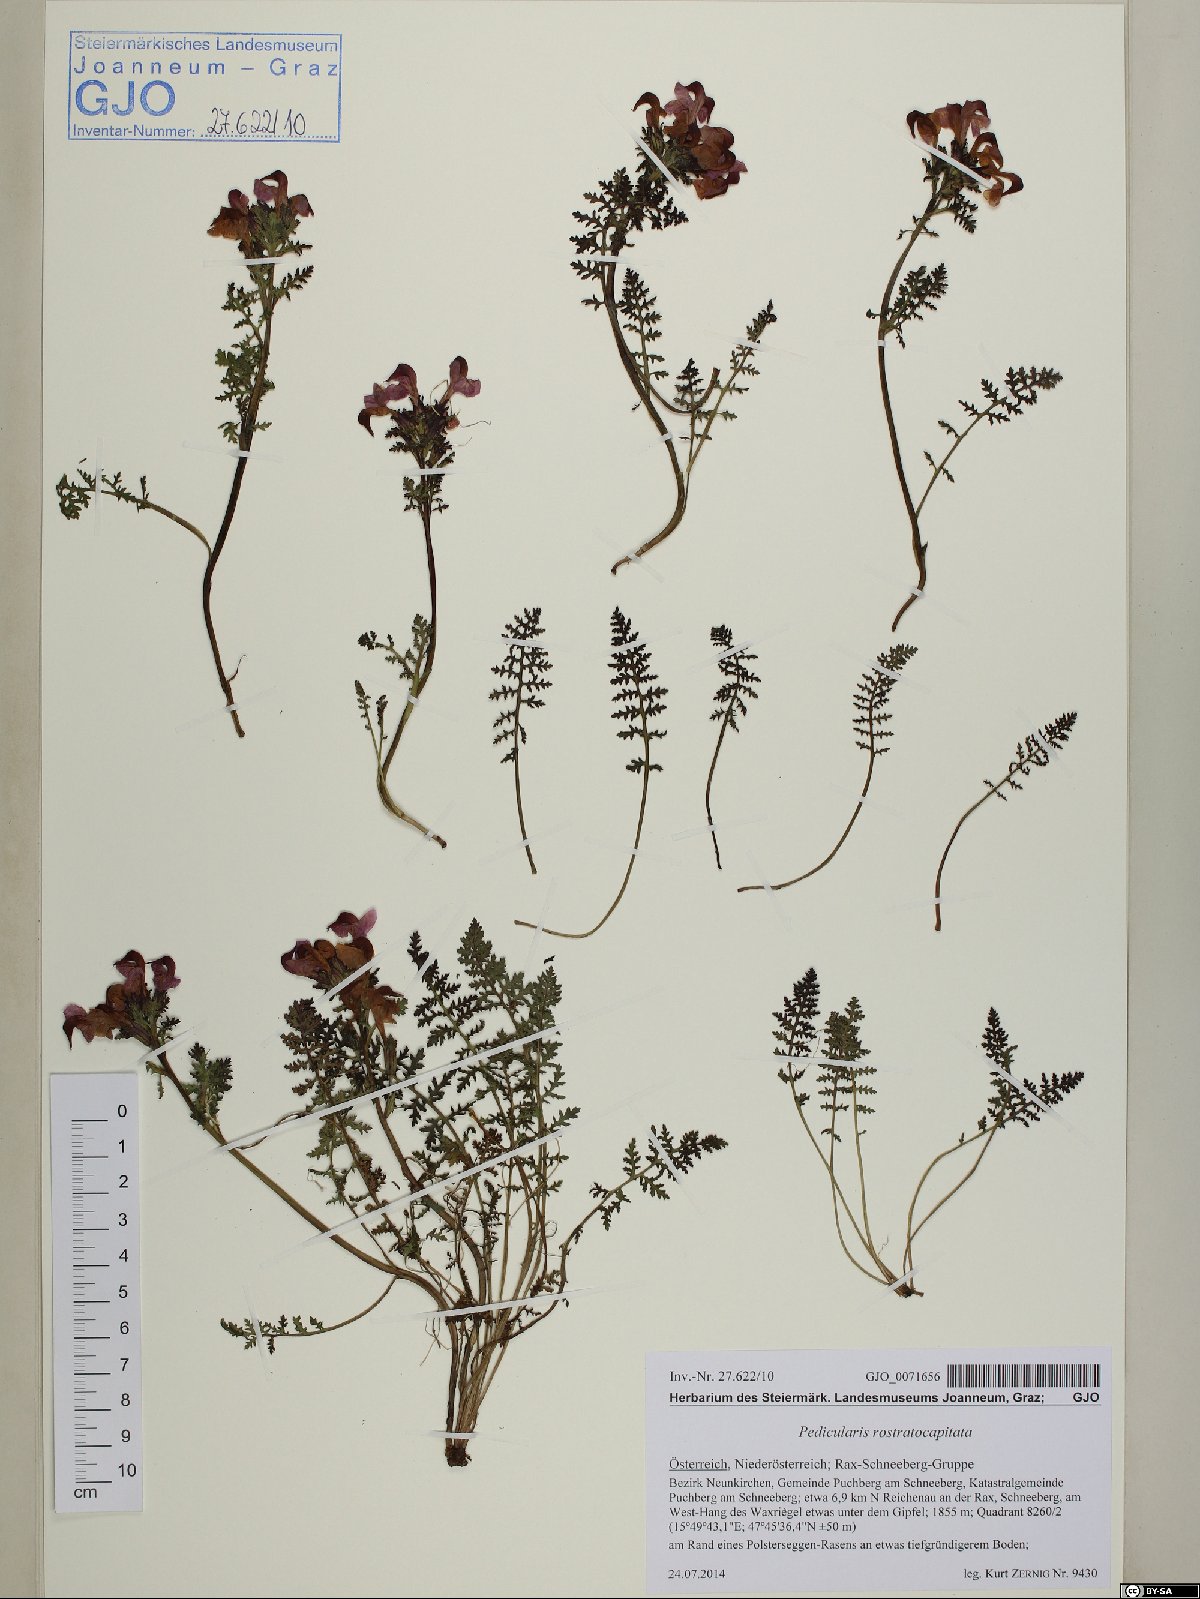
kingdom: Plantae
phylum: Tracheophyta
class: Magnoliopsida
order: Lamiales
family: Orobanchaceae
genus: Pedicularis
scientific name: Pedicularis rostratocapitata
